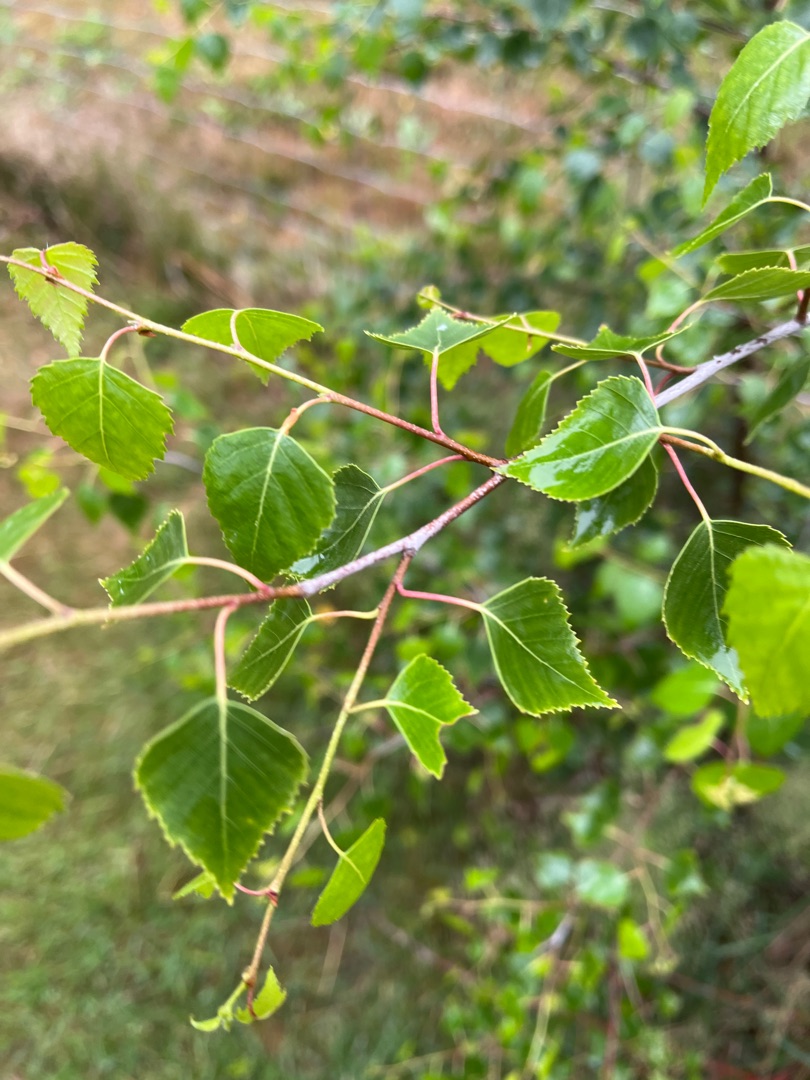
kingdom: Plantae
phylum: Tracheophyta
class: Magnoliopsida
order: Fagales
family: Betulaceae
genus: Betula
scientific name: Betula pendula
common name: Vorte-birk
